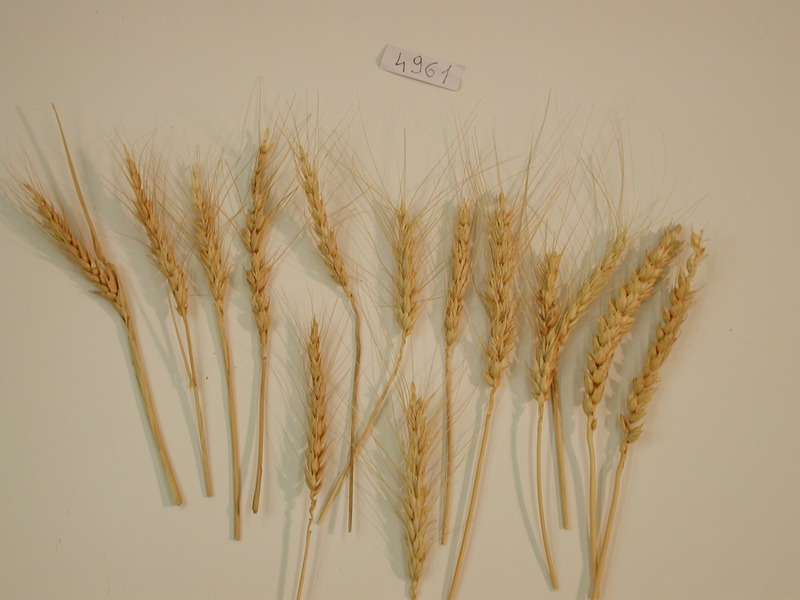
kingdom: Plantae
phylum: Tracheophyta
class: Liliopsida
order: Poales
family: Poaceae
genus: Triticum
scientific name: Triticum turgidum
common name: Wheat
